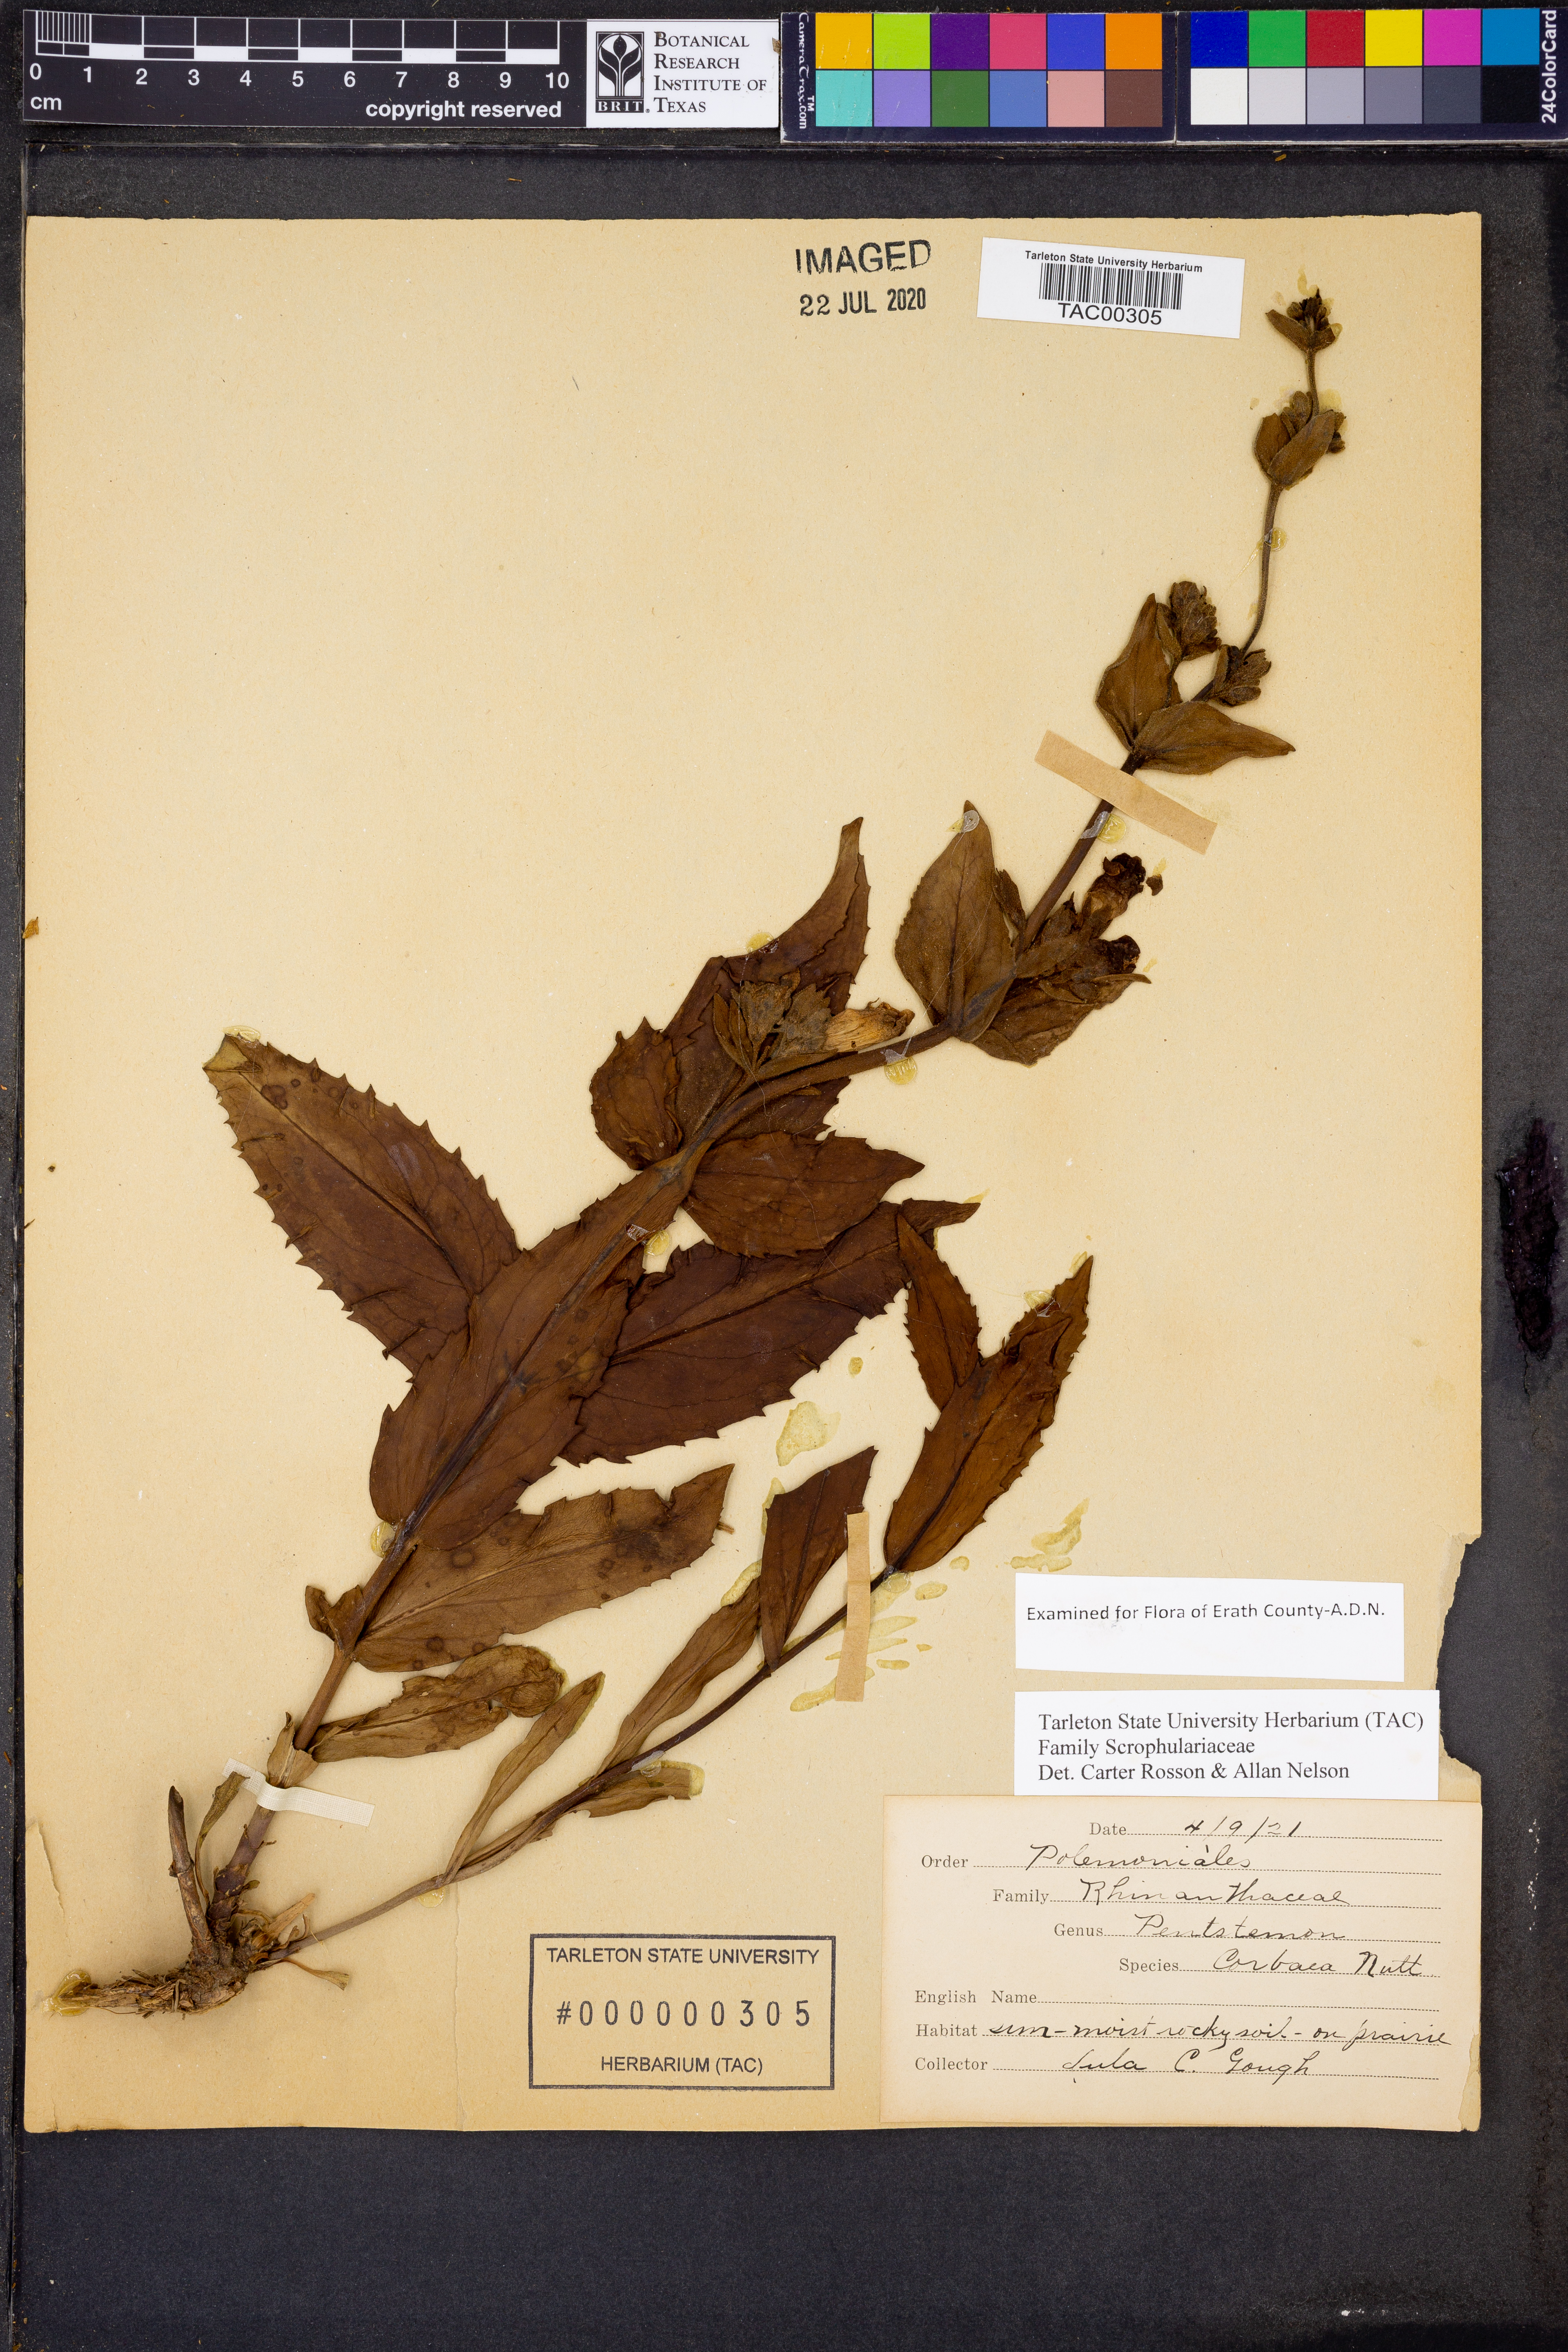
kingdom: Plantae
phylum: Tracheophyta
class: Magnoliopsida
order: Lamiales
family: Plantaginaceae
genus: Penstemon
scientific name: Penstemon
